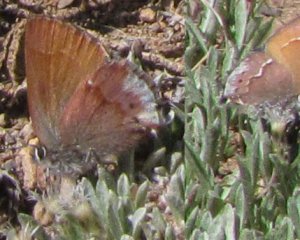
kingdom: Animalia
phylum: Arthropoda
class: Insecta
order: Lepidoptera
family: Lycaenidae
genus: Mitoura
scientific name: Mitoura nelsoni
